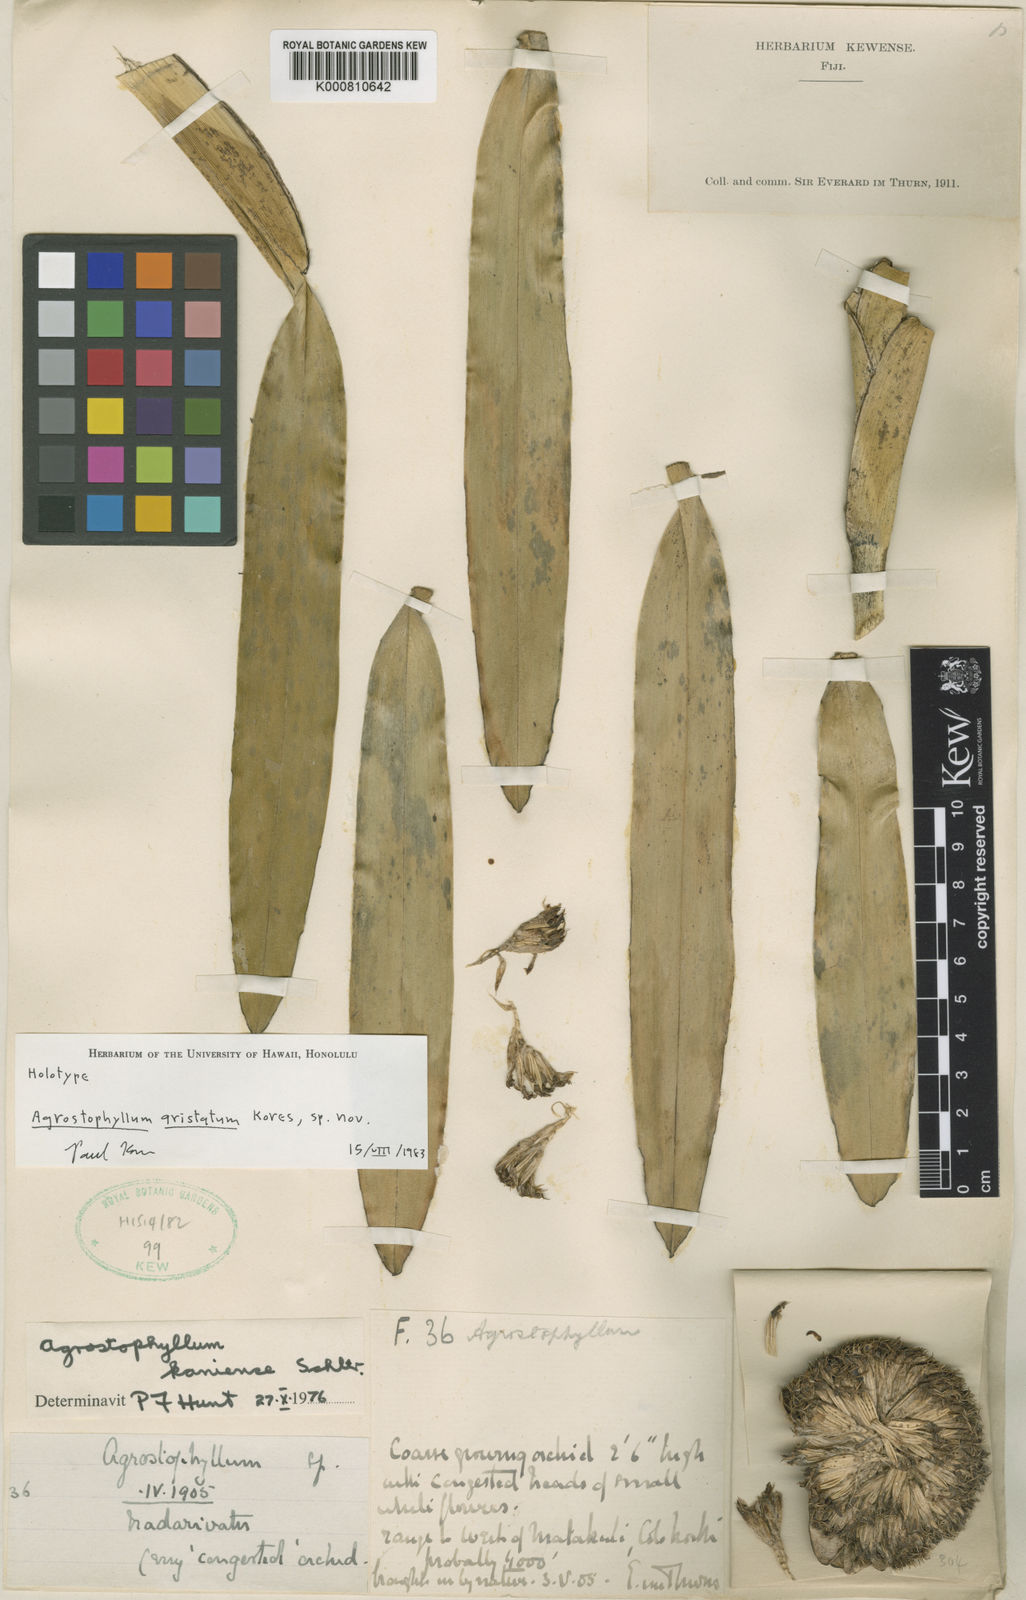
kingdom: Plantae
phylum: Tracheophyta
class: Liliopsida
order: Asparagales
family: Orchidaceae
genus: Agrostophyllum
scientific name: Agrostophyllum aristatum
